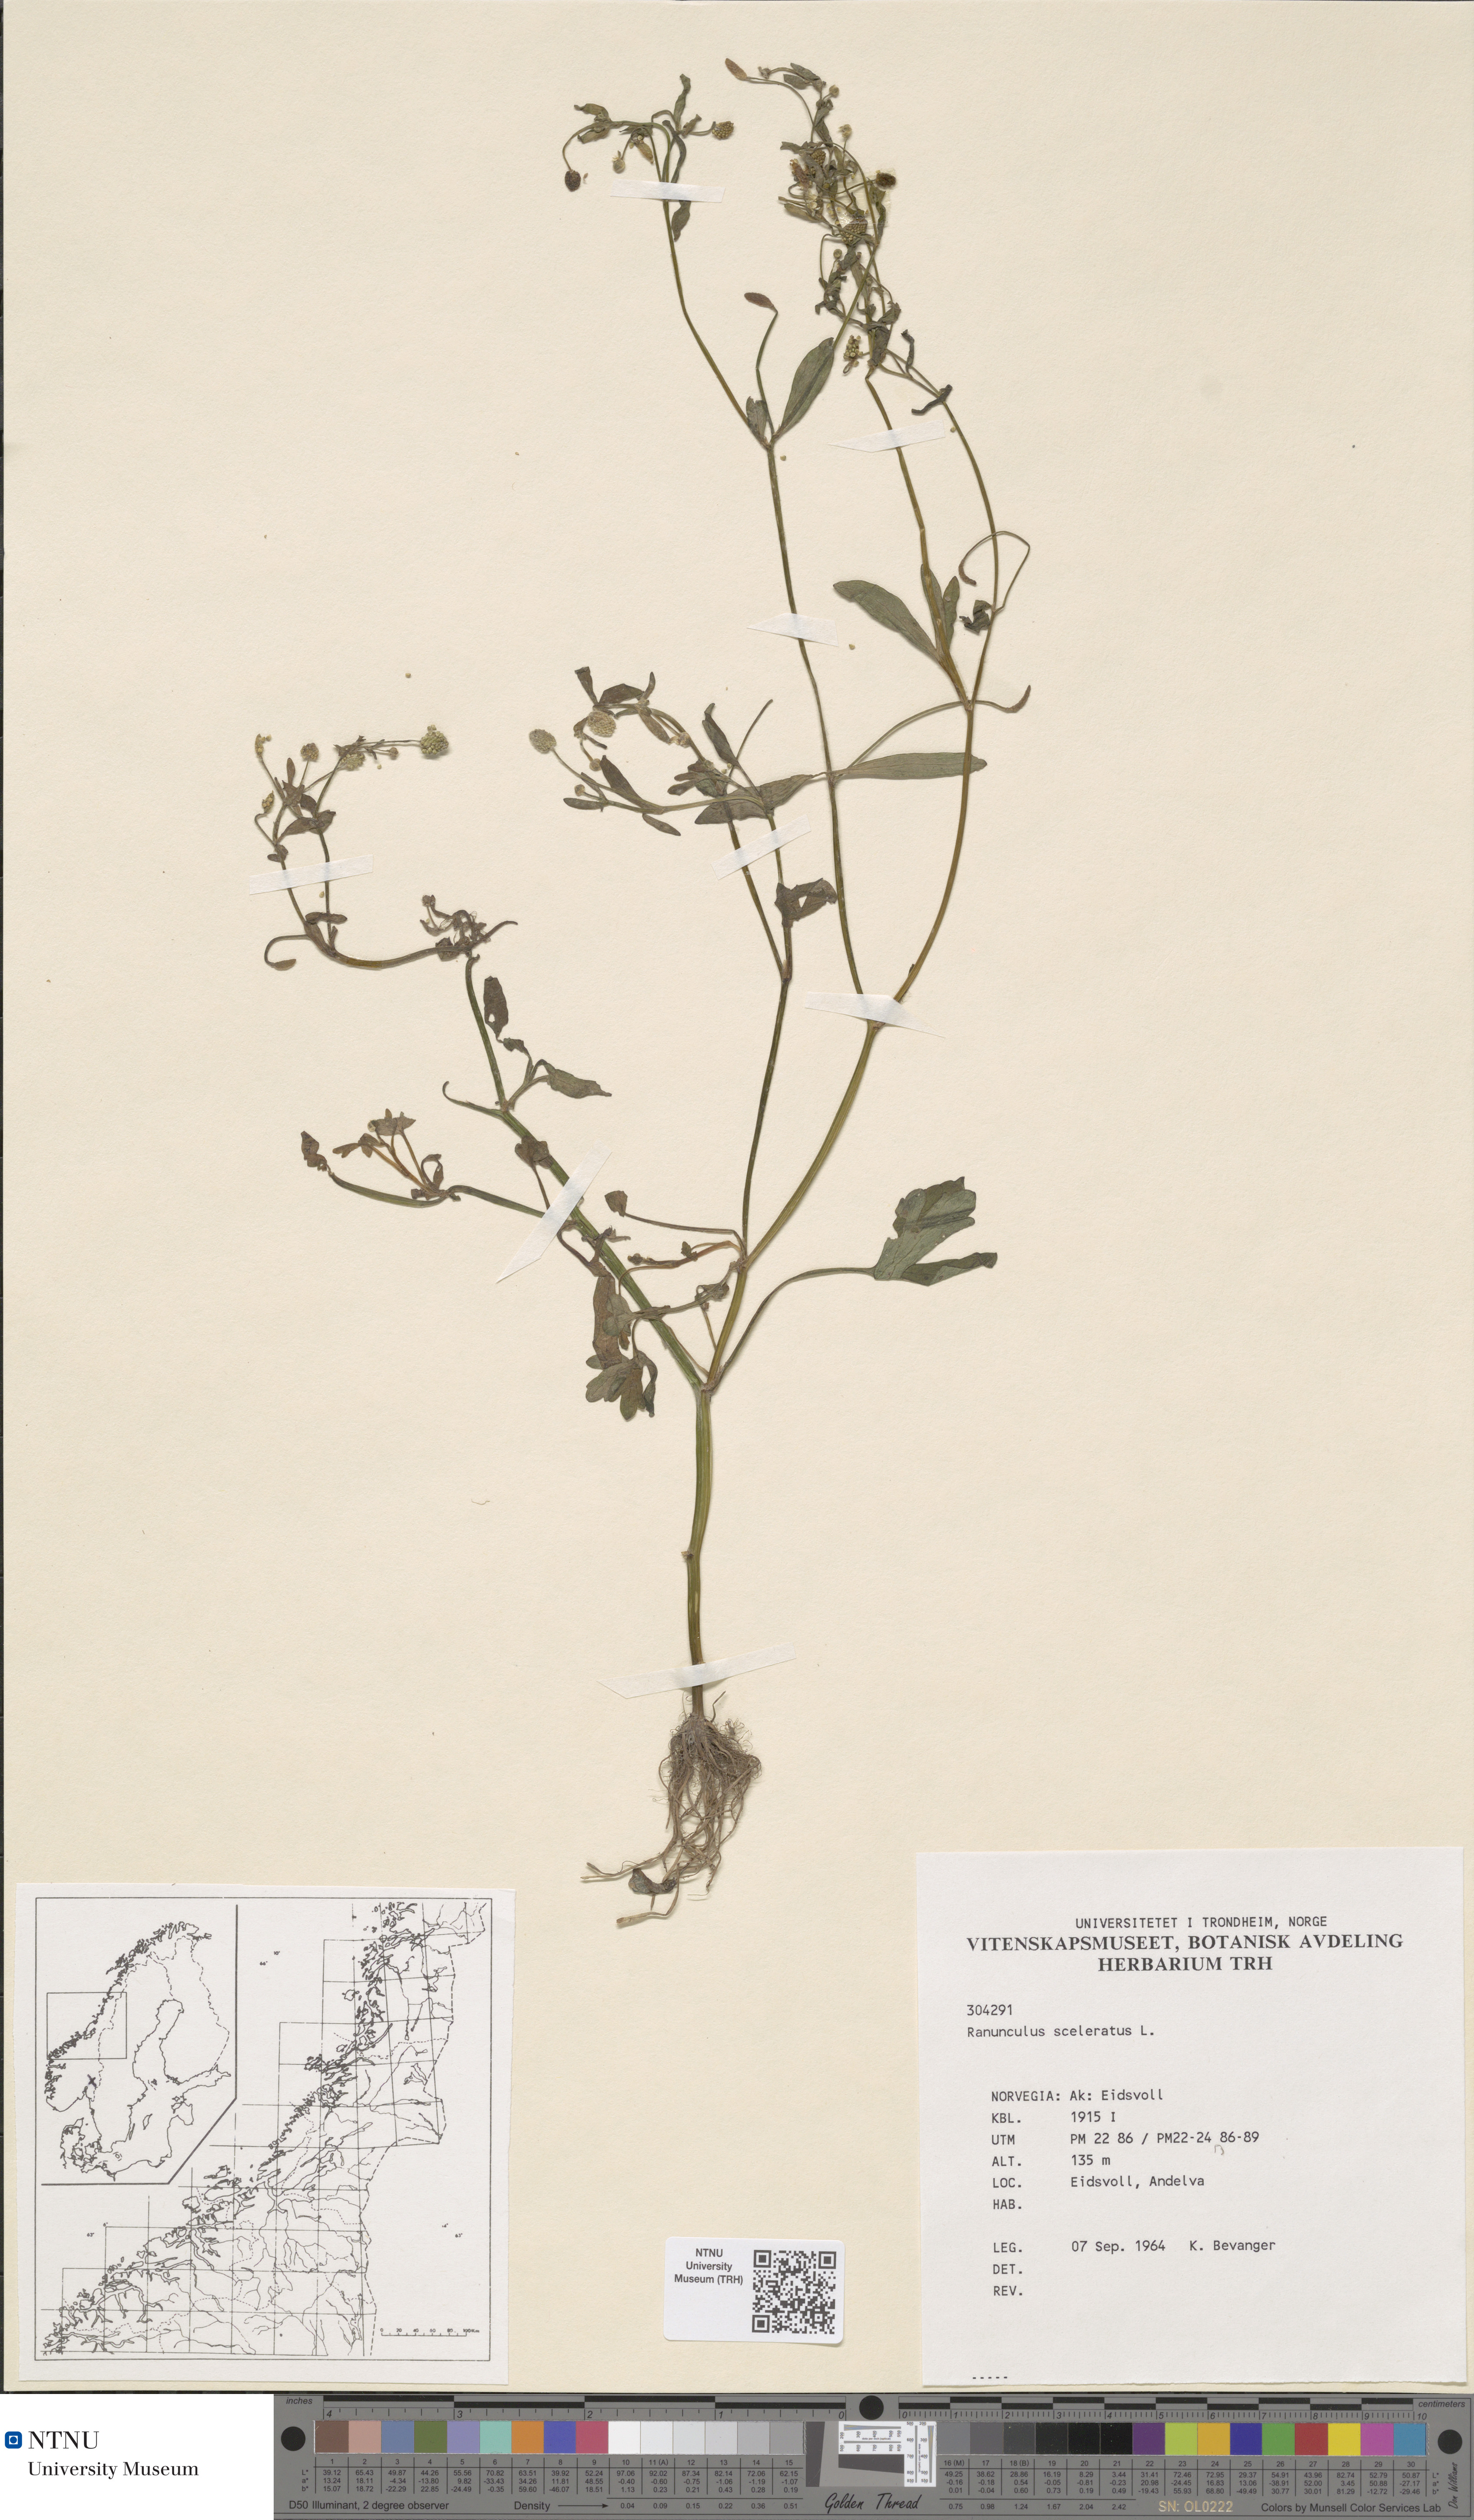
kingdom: Plantae
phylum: Tracheophyta
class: Magnoliopsida
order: Ranunculales
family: Ranunculaceae
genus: Ranunculus
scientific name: Ranunculus sceleratus
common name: Celery-leaved buttercup
